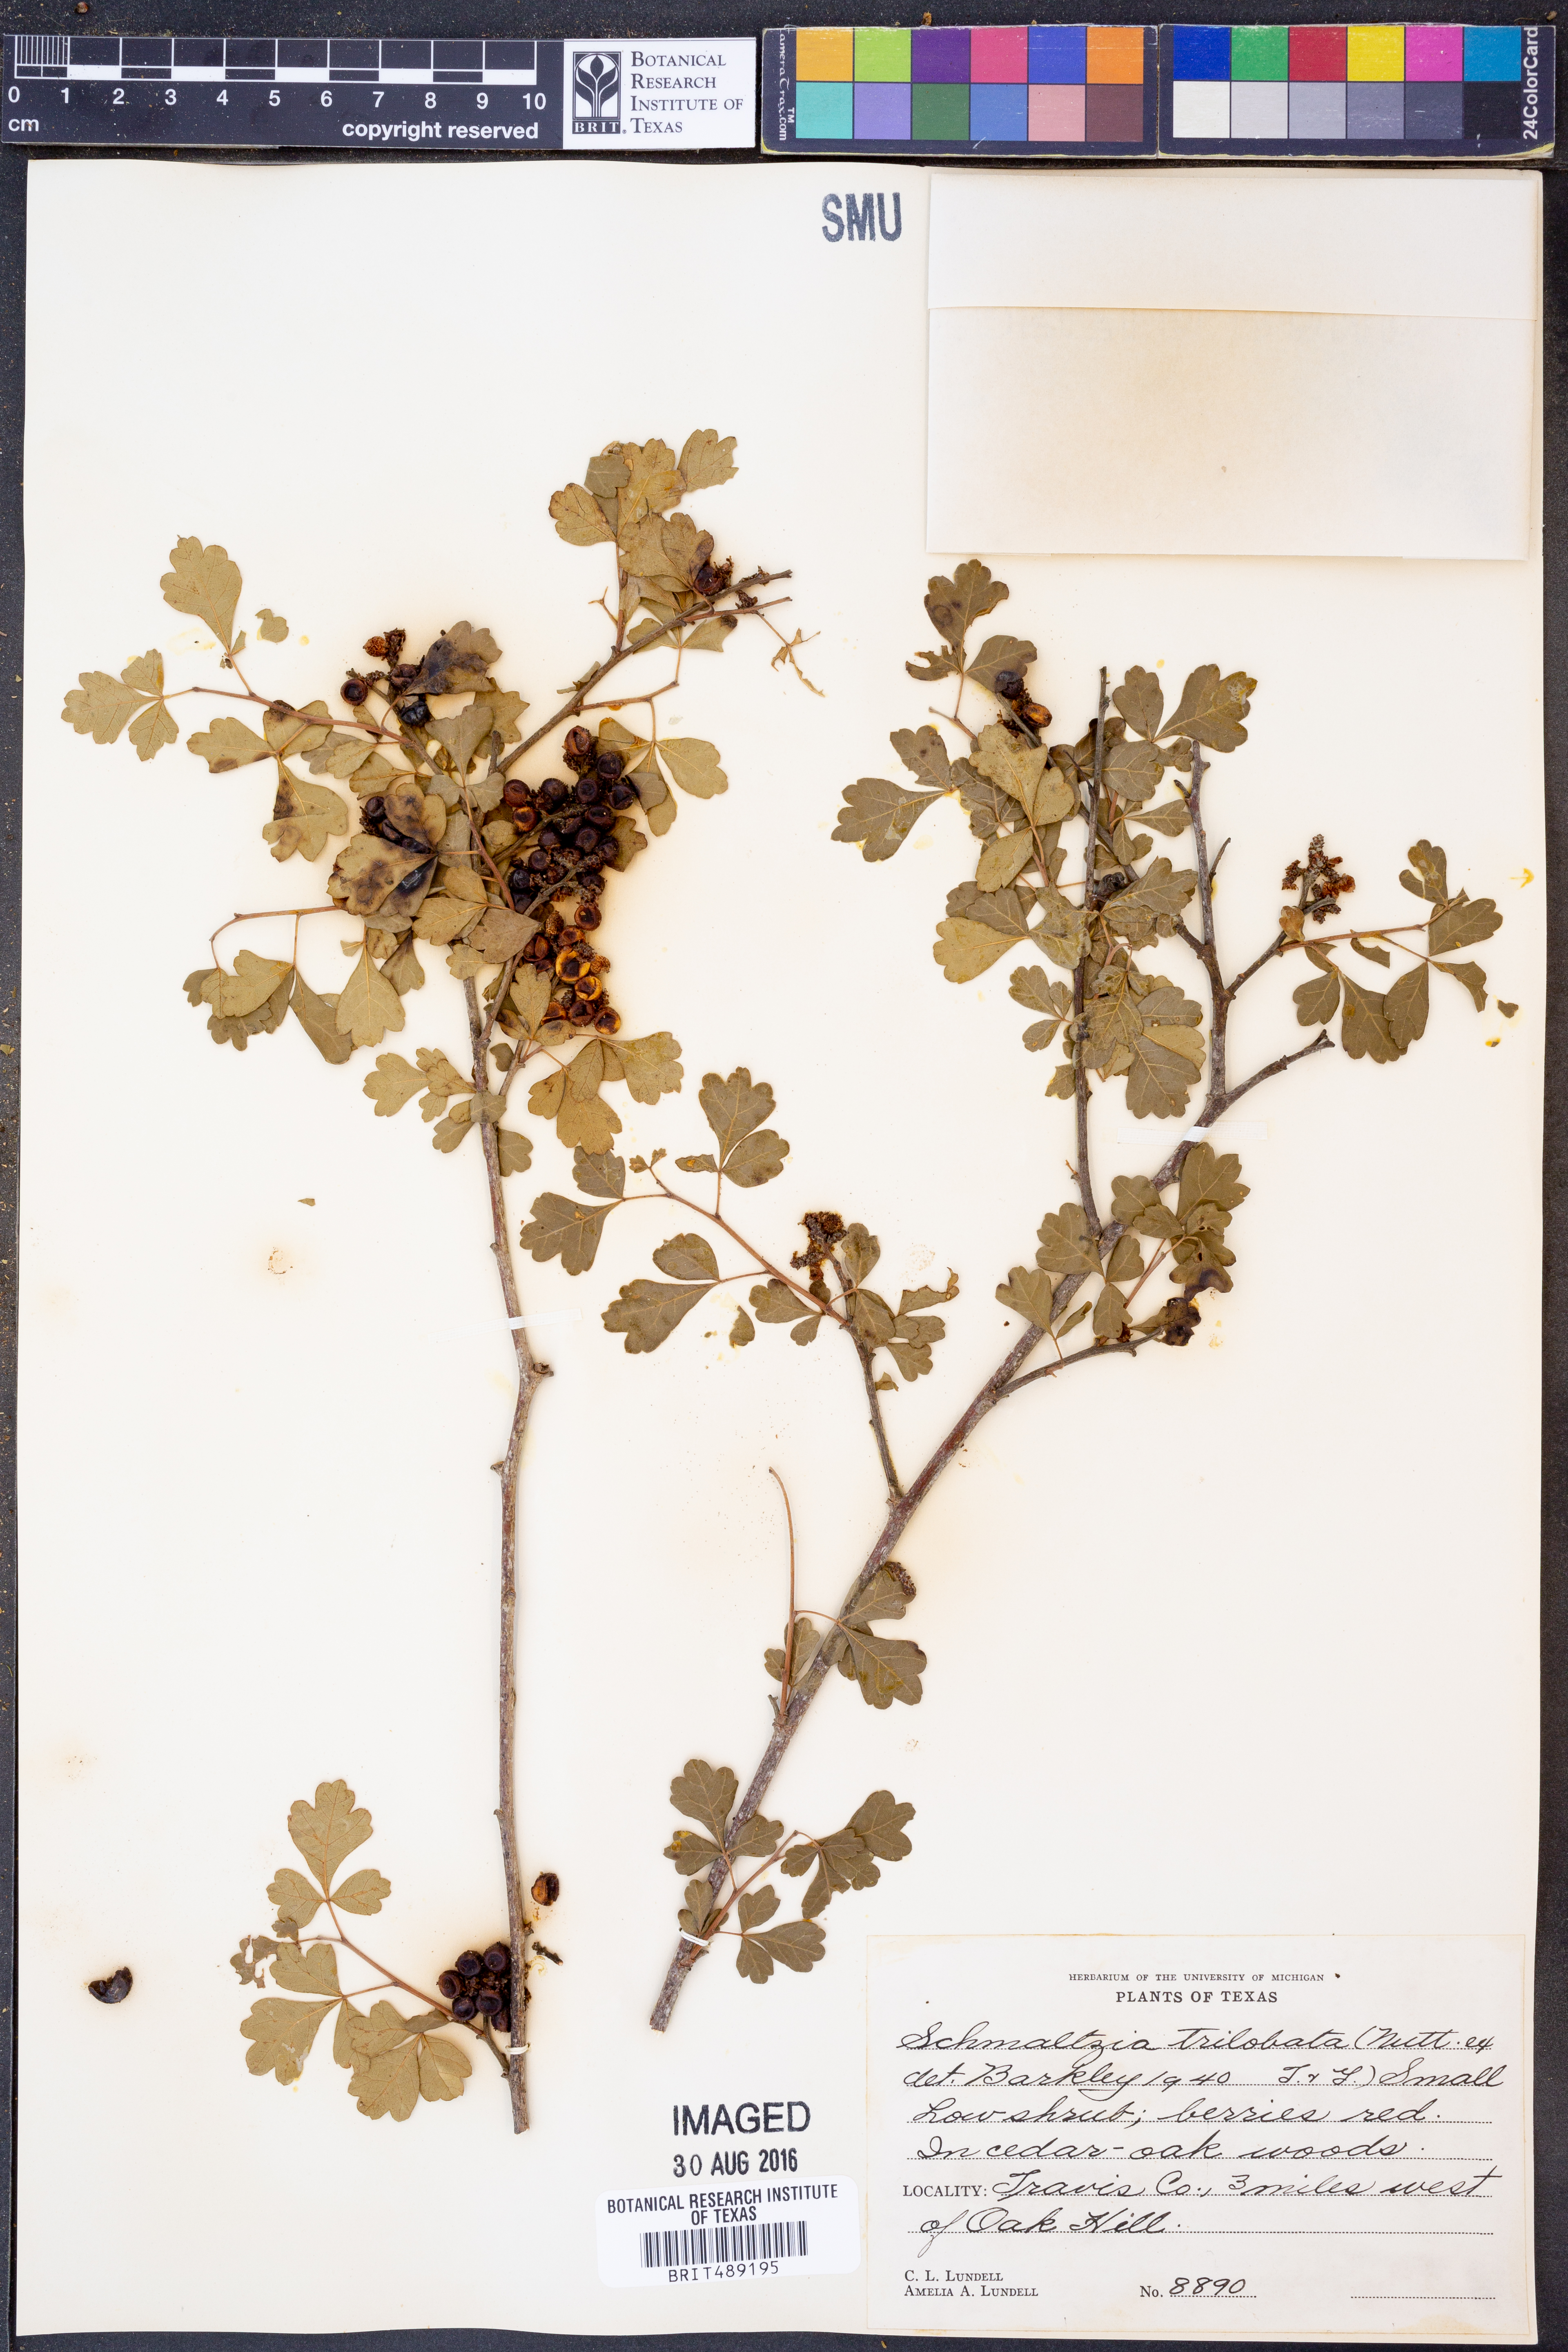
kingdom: Plantae
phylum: Tracheophyta
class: Magnoliopsida
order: Sapindales
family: Anacardiaceae
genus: Rhus
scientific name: Rhus trilobata
